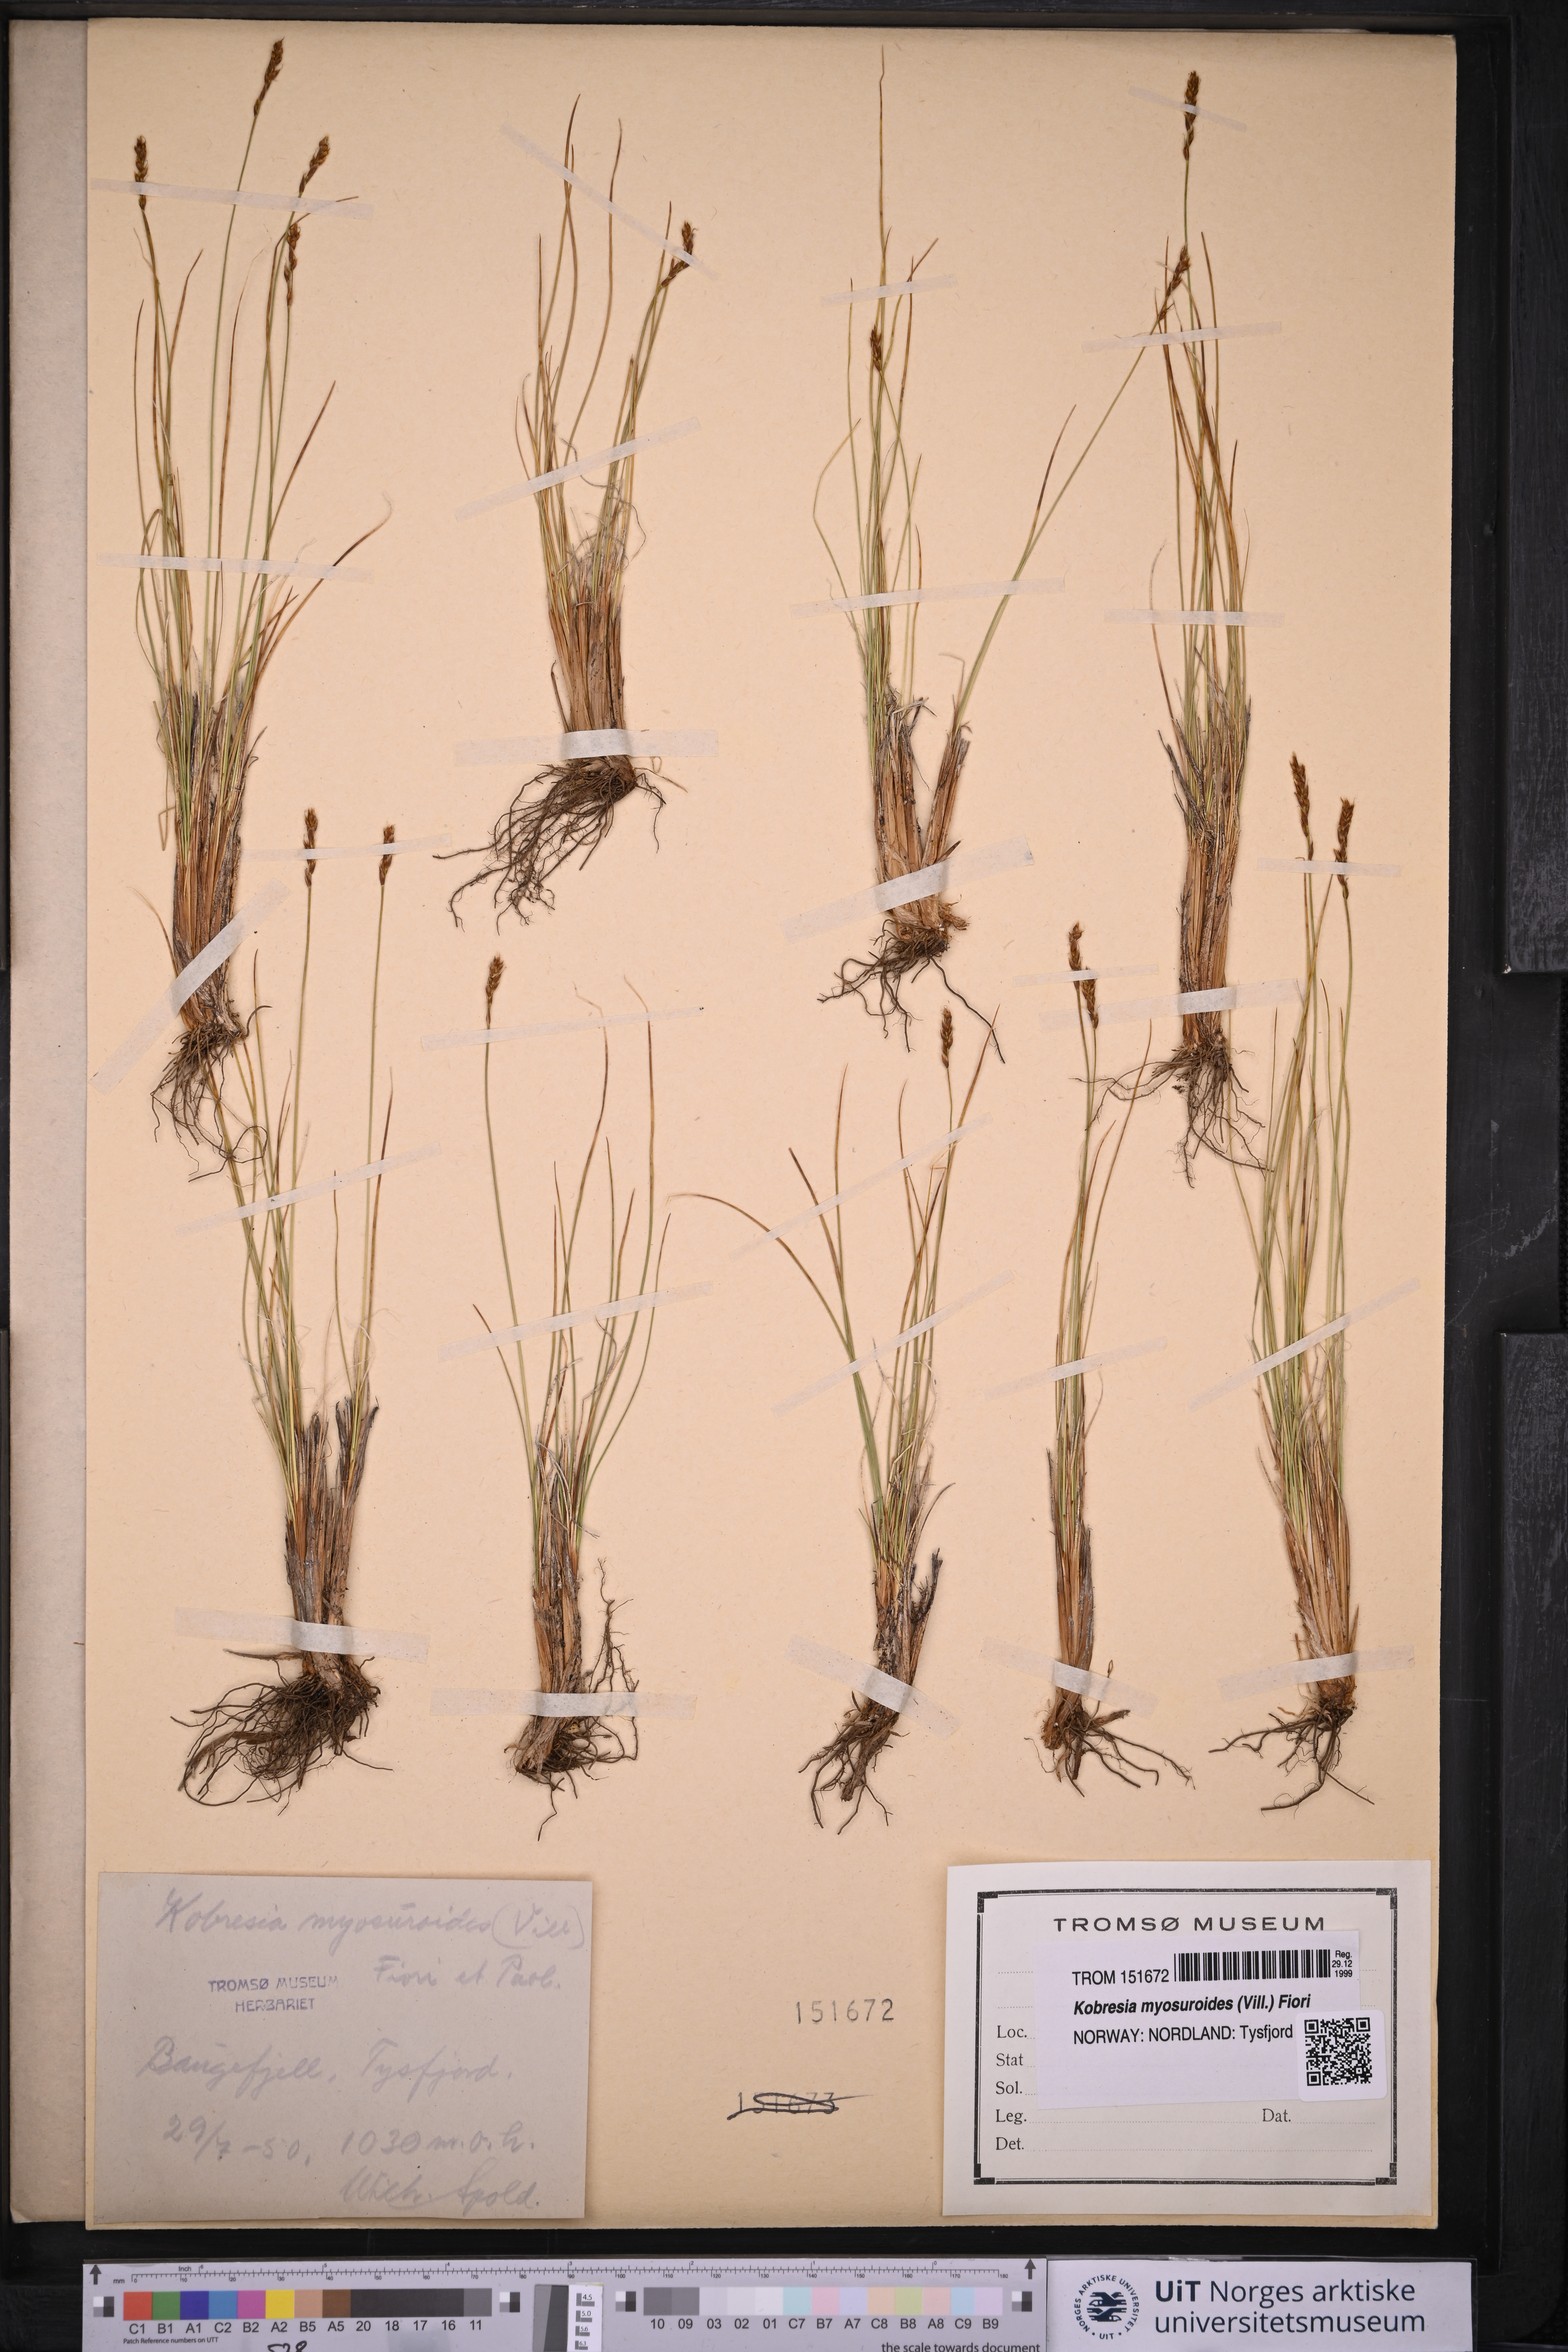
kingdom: Plantae
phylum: Tracheophyta
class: Liliopsida
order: Poales
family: Cyperaceae
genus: Carex
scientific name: Carex myosuroides
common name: Bellard's bog sedge
